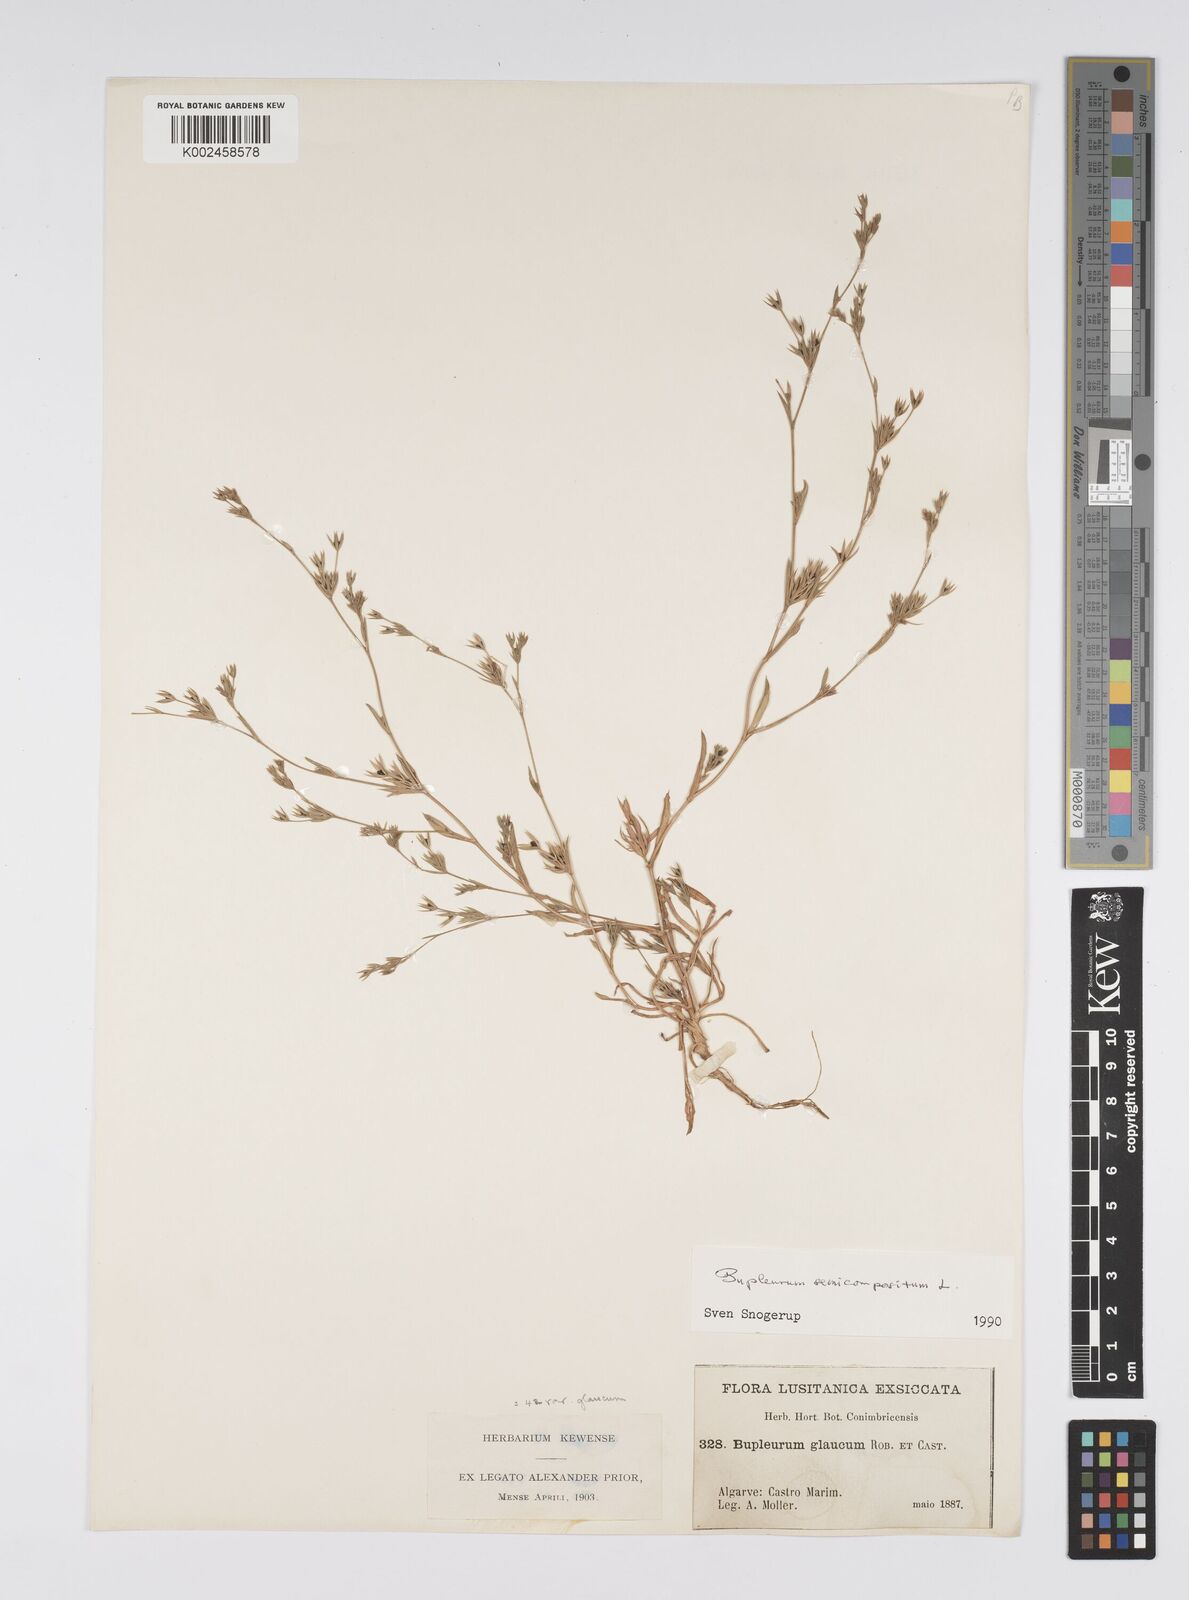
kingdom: Plantae
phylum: Tracheophyta
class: Magnoliopsida
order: Apiales
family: Apiaceae
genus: Bupleurum
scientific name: Bupleurum semicompositum
